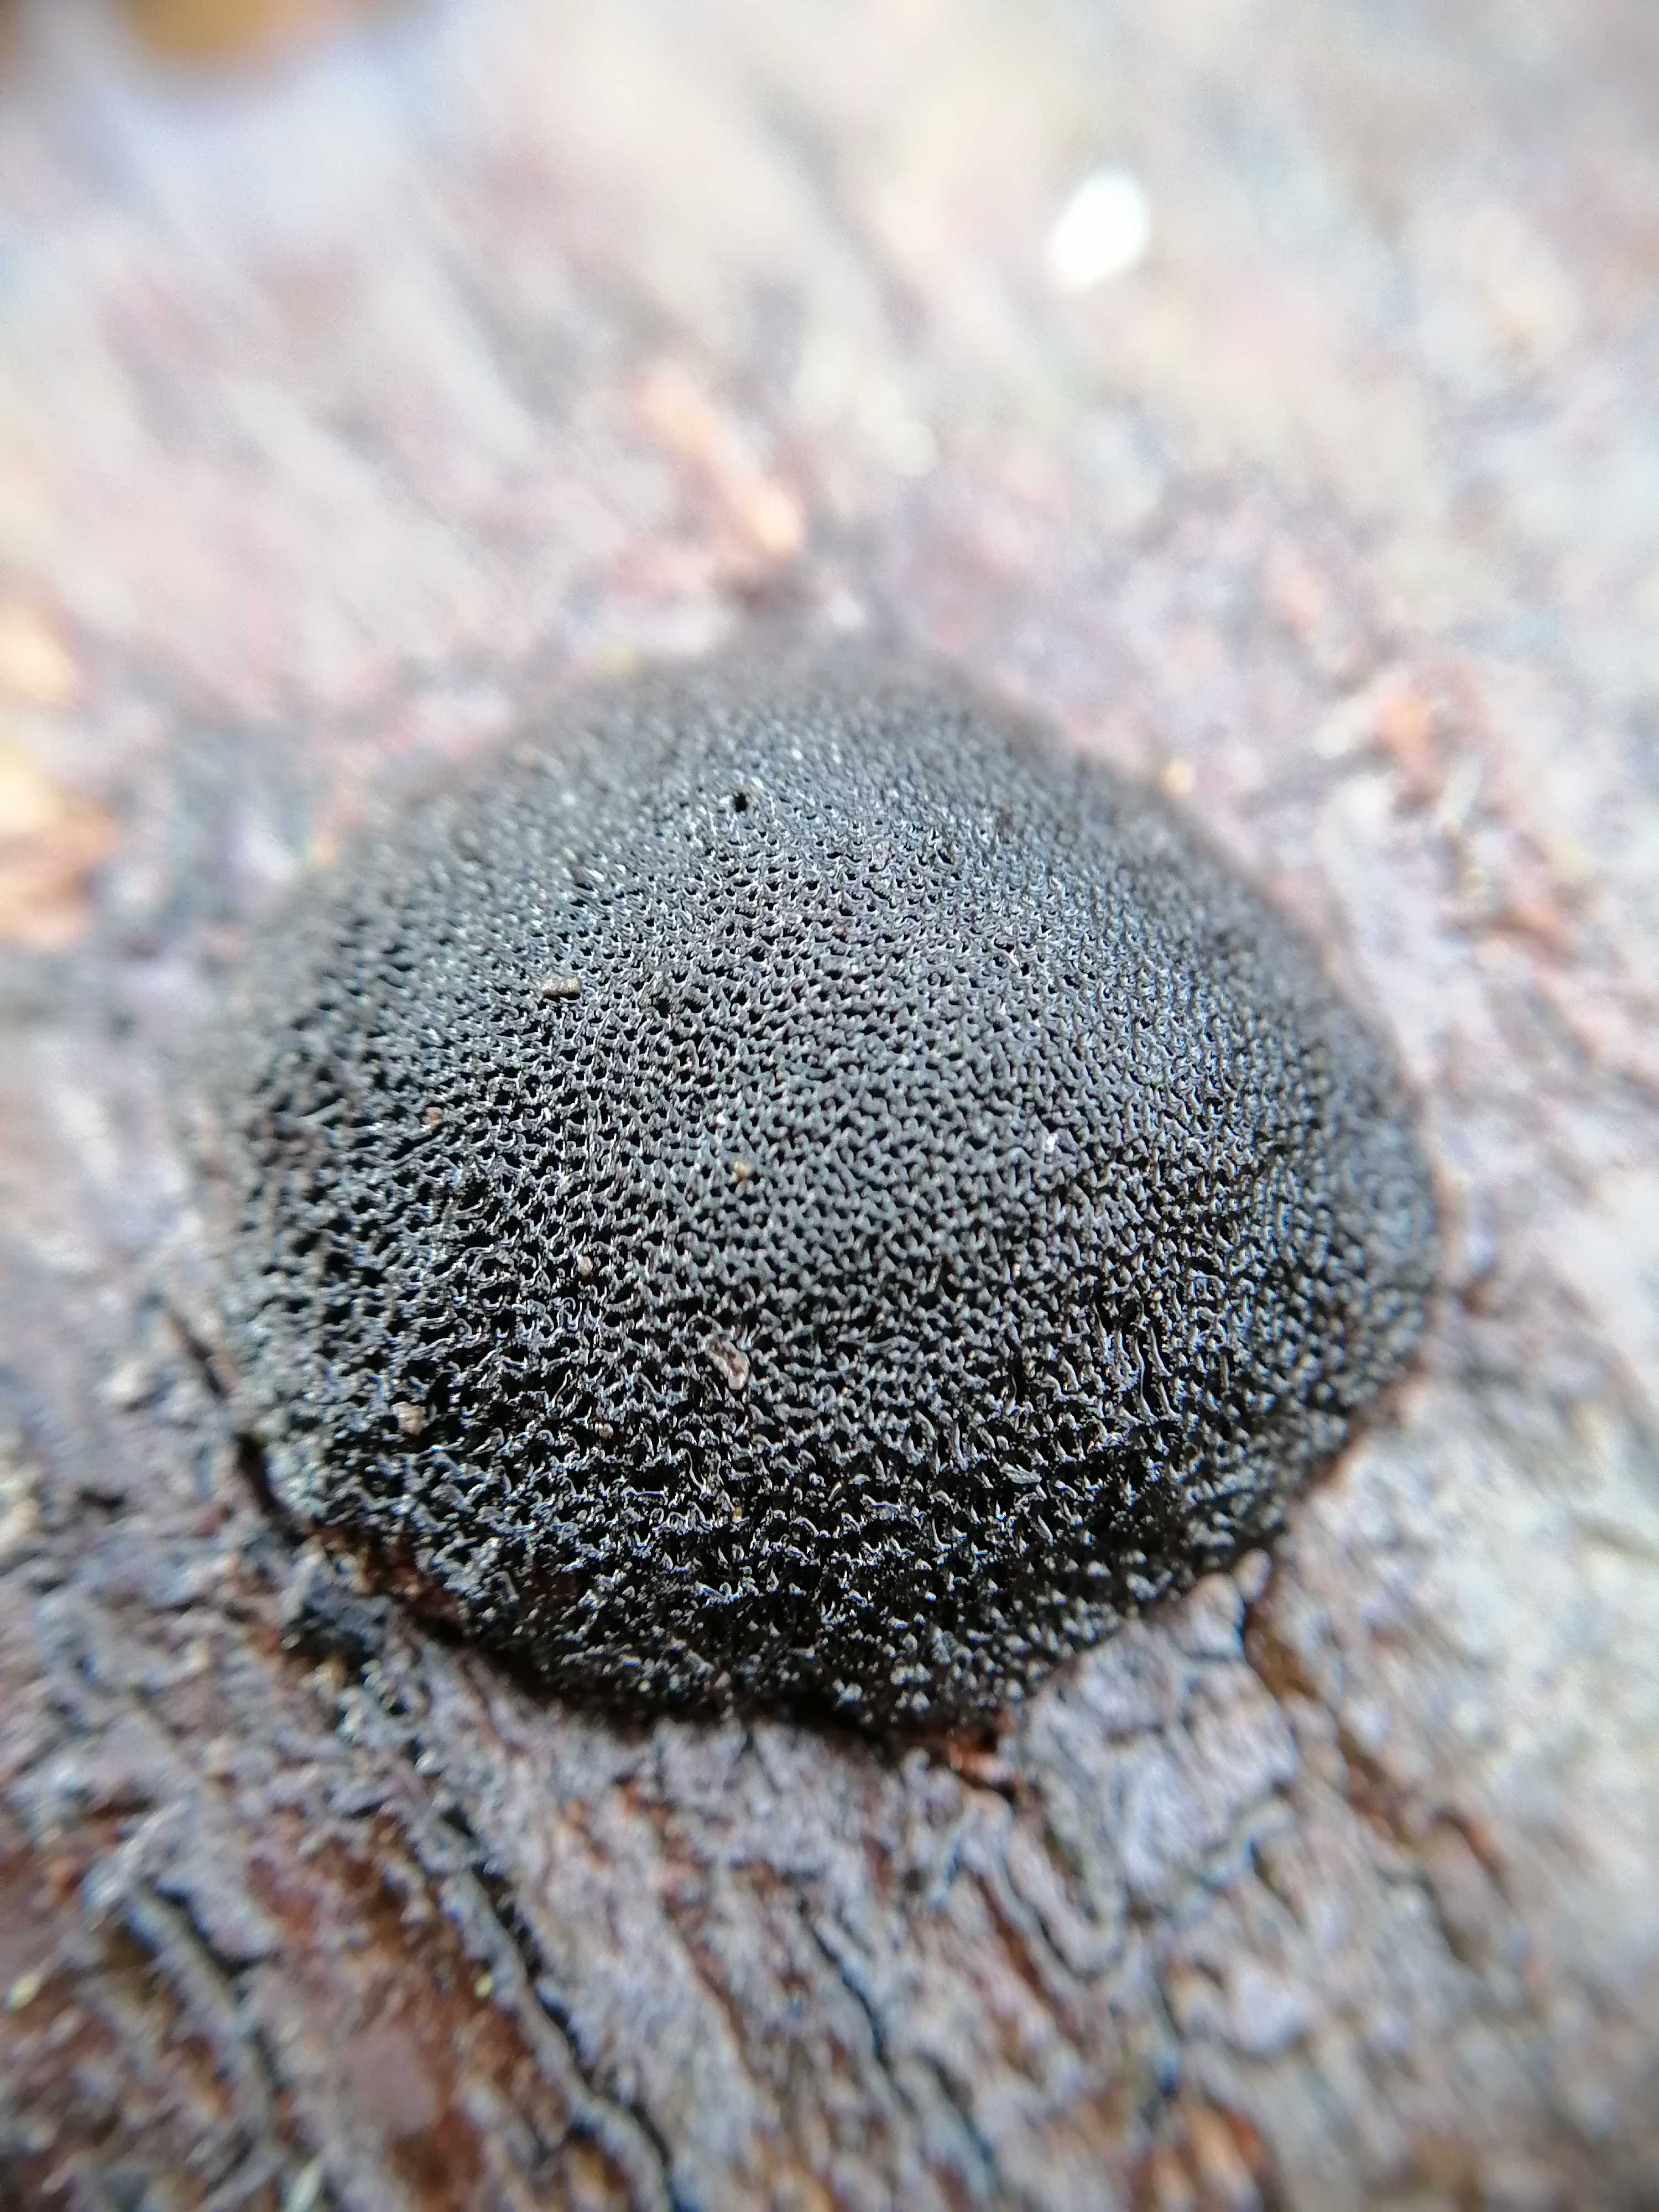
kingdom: Fungi
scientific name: Fungi
